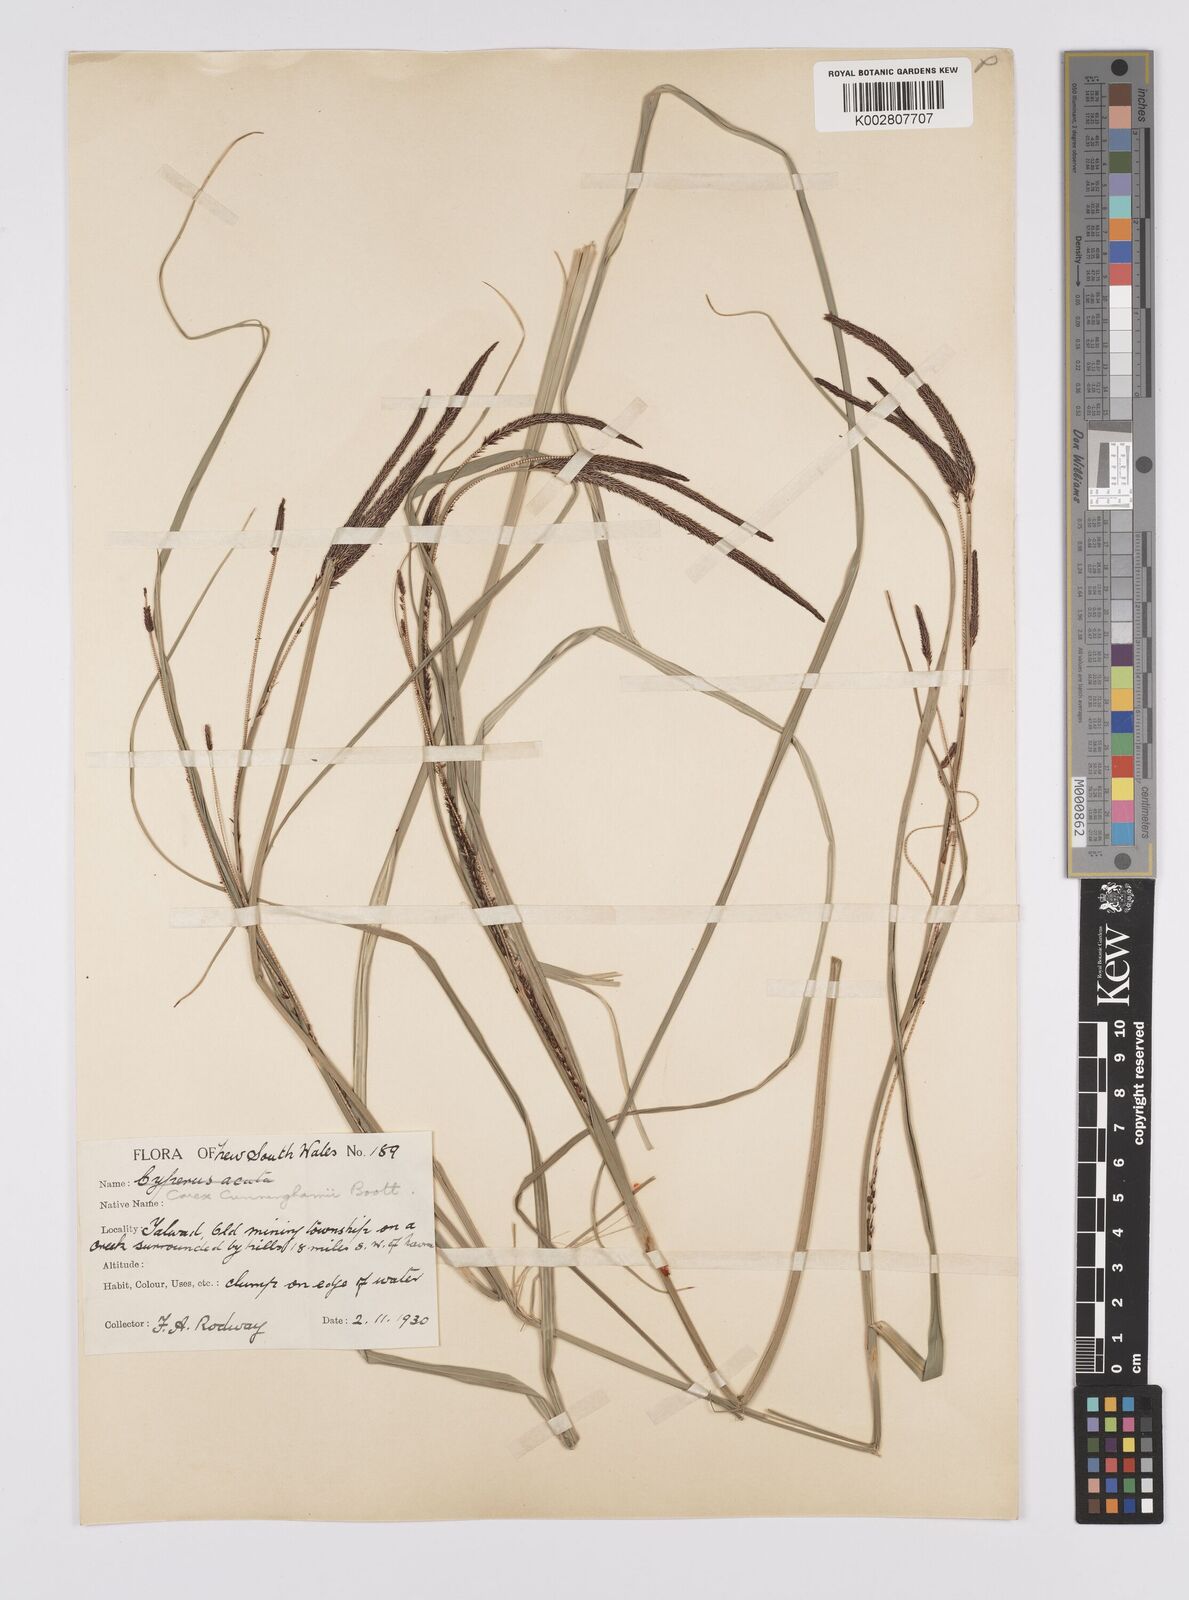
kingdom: Plantae
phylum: Tracheophyta
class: Liliopsida
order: Poales
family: Cyperaceae
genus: Carex
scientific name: Carex polyantha
